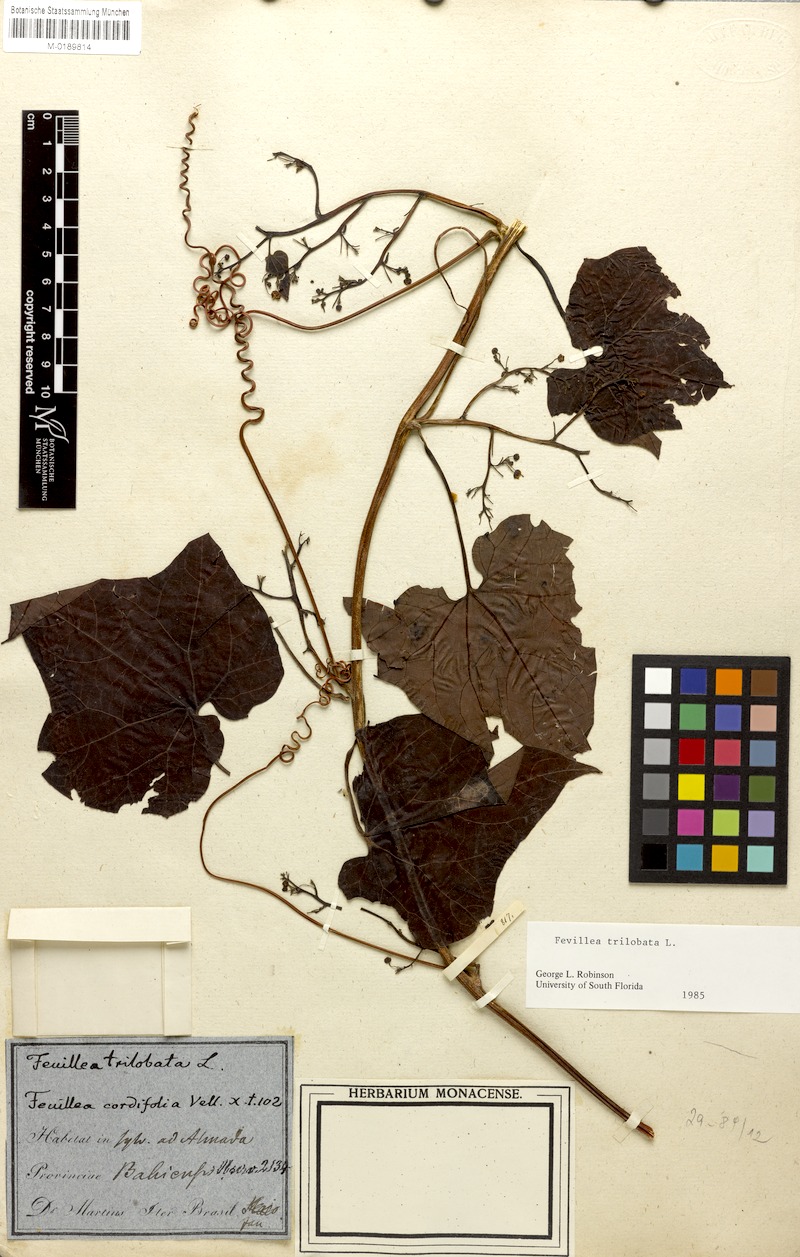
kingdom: Plantae
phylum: Tracheophyta
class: Magnoliopsida
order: Cucurbitales
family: Cucurbitaceae
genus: Fevillea
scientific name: Fevillea trilobata
